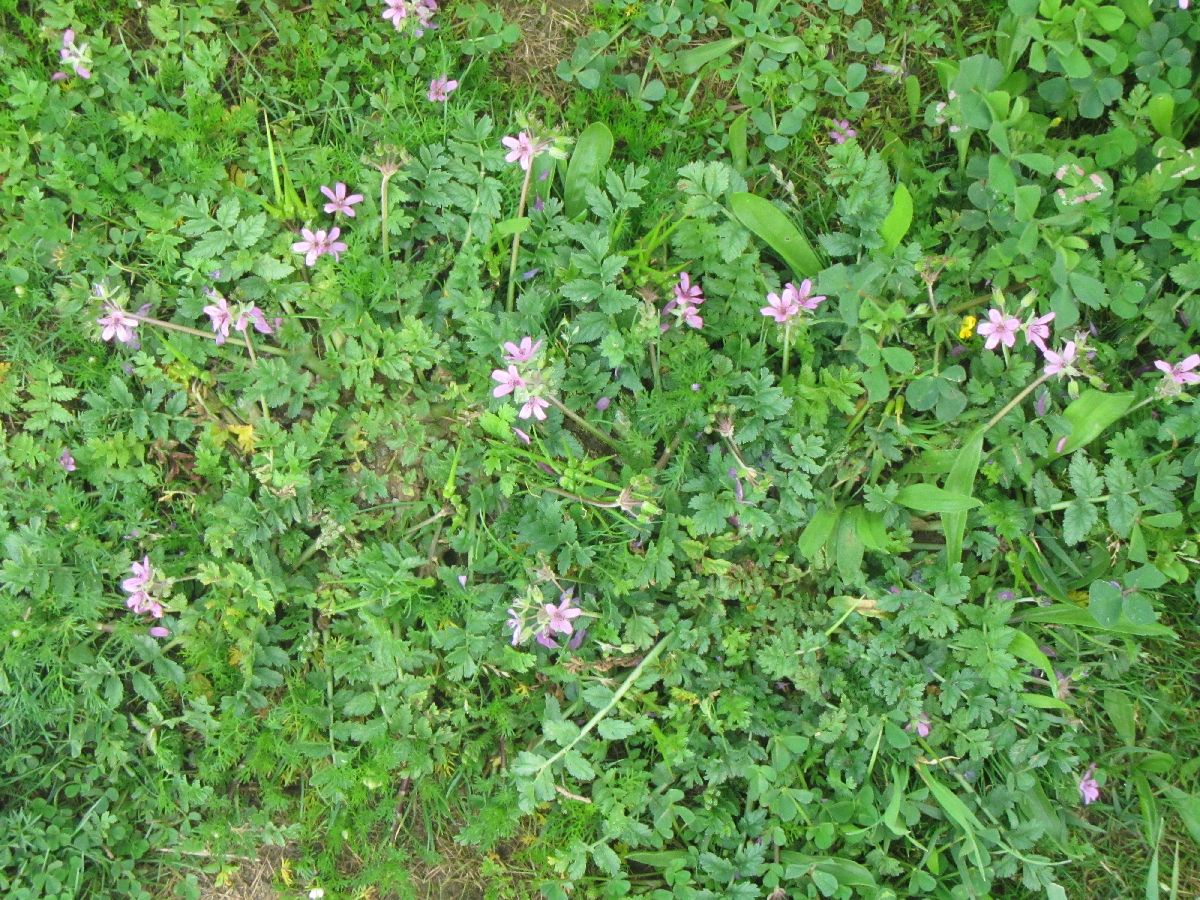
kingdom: Plantae
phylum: Tracheophyta
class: Magnoliopsida
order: Geraniales
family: Geraniaceae
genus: Erodium
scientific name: Erodium cicutarium
